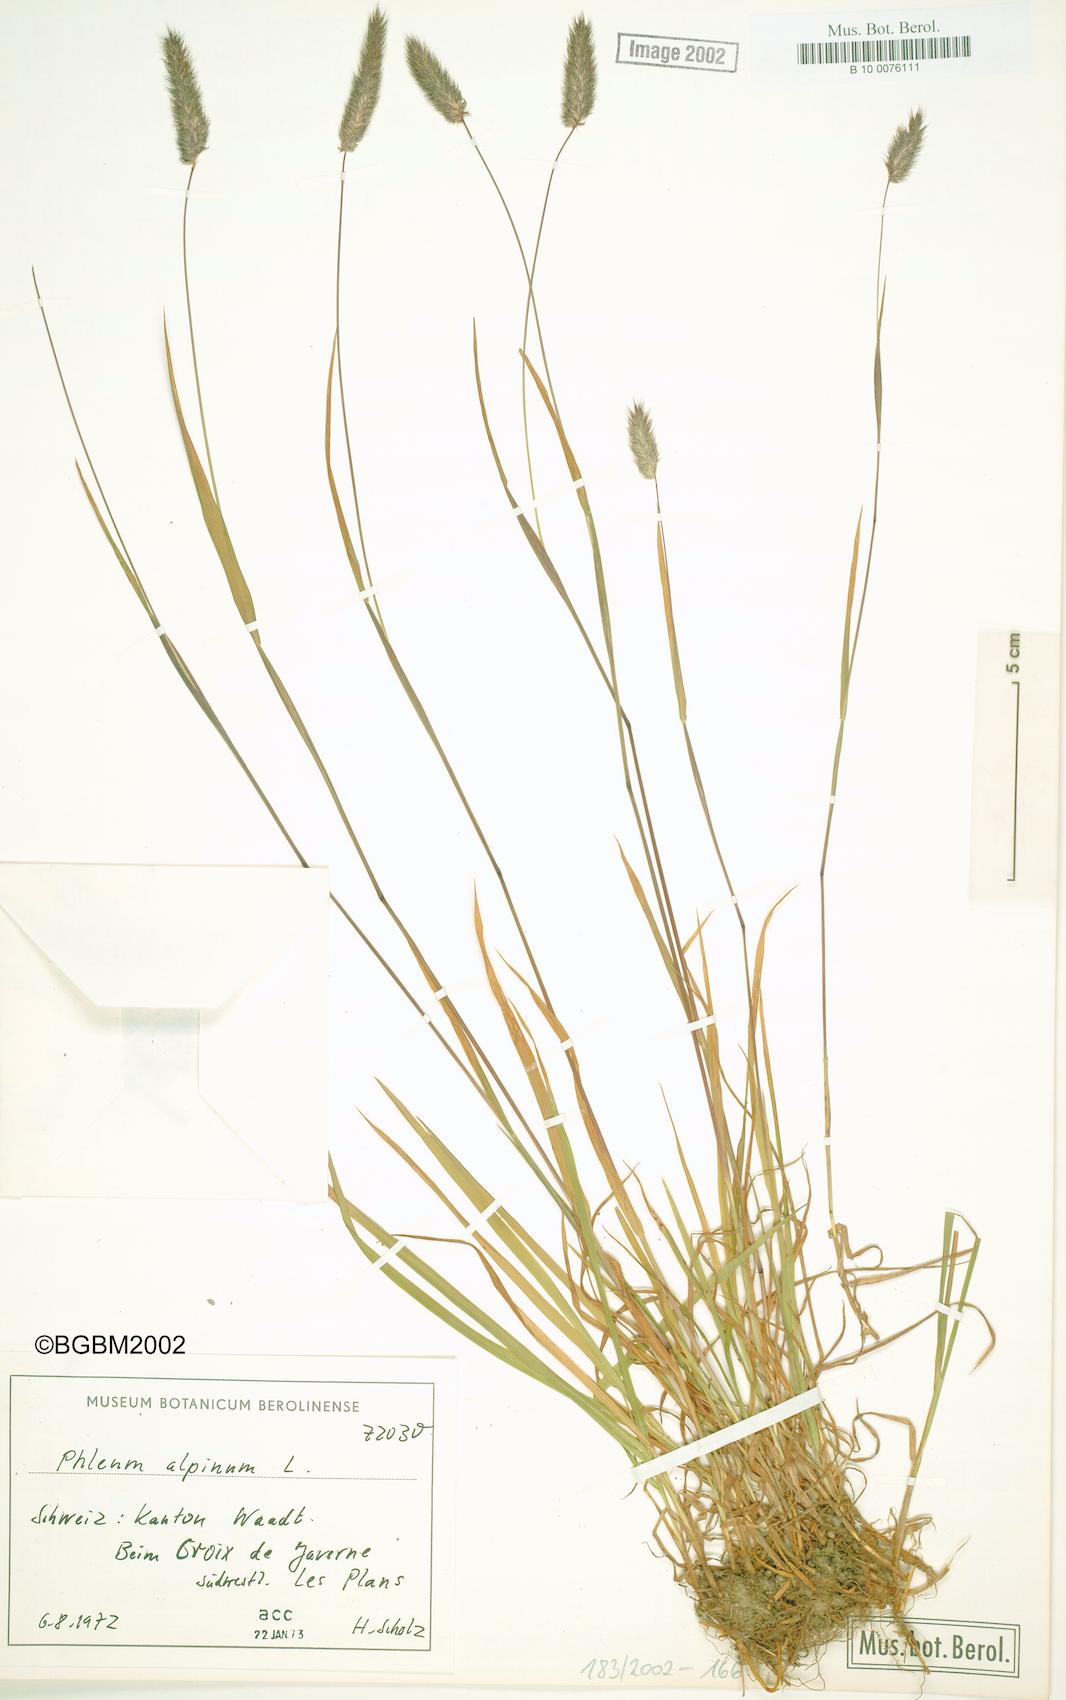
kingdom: Plantae
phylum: Tracheophyta
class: Liliopsida
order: Poales
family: Poaceae
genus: Phleum
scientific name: Phleum alpinum
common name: Alpine cat's-tail
